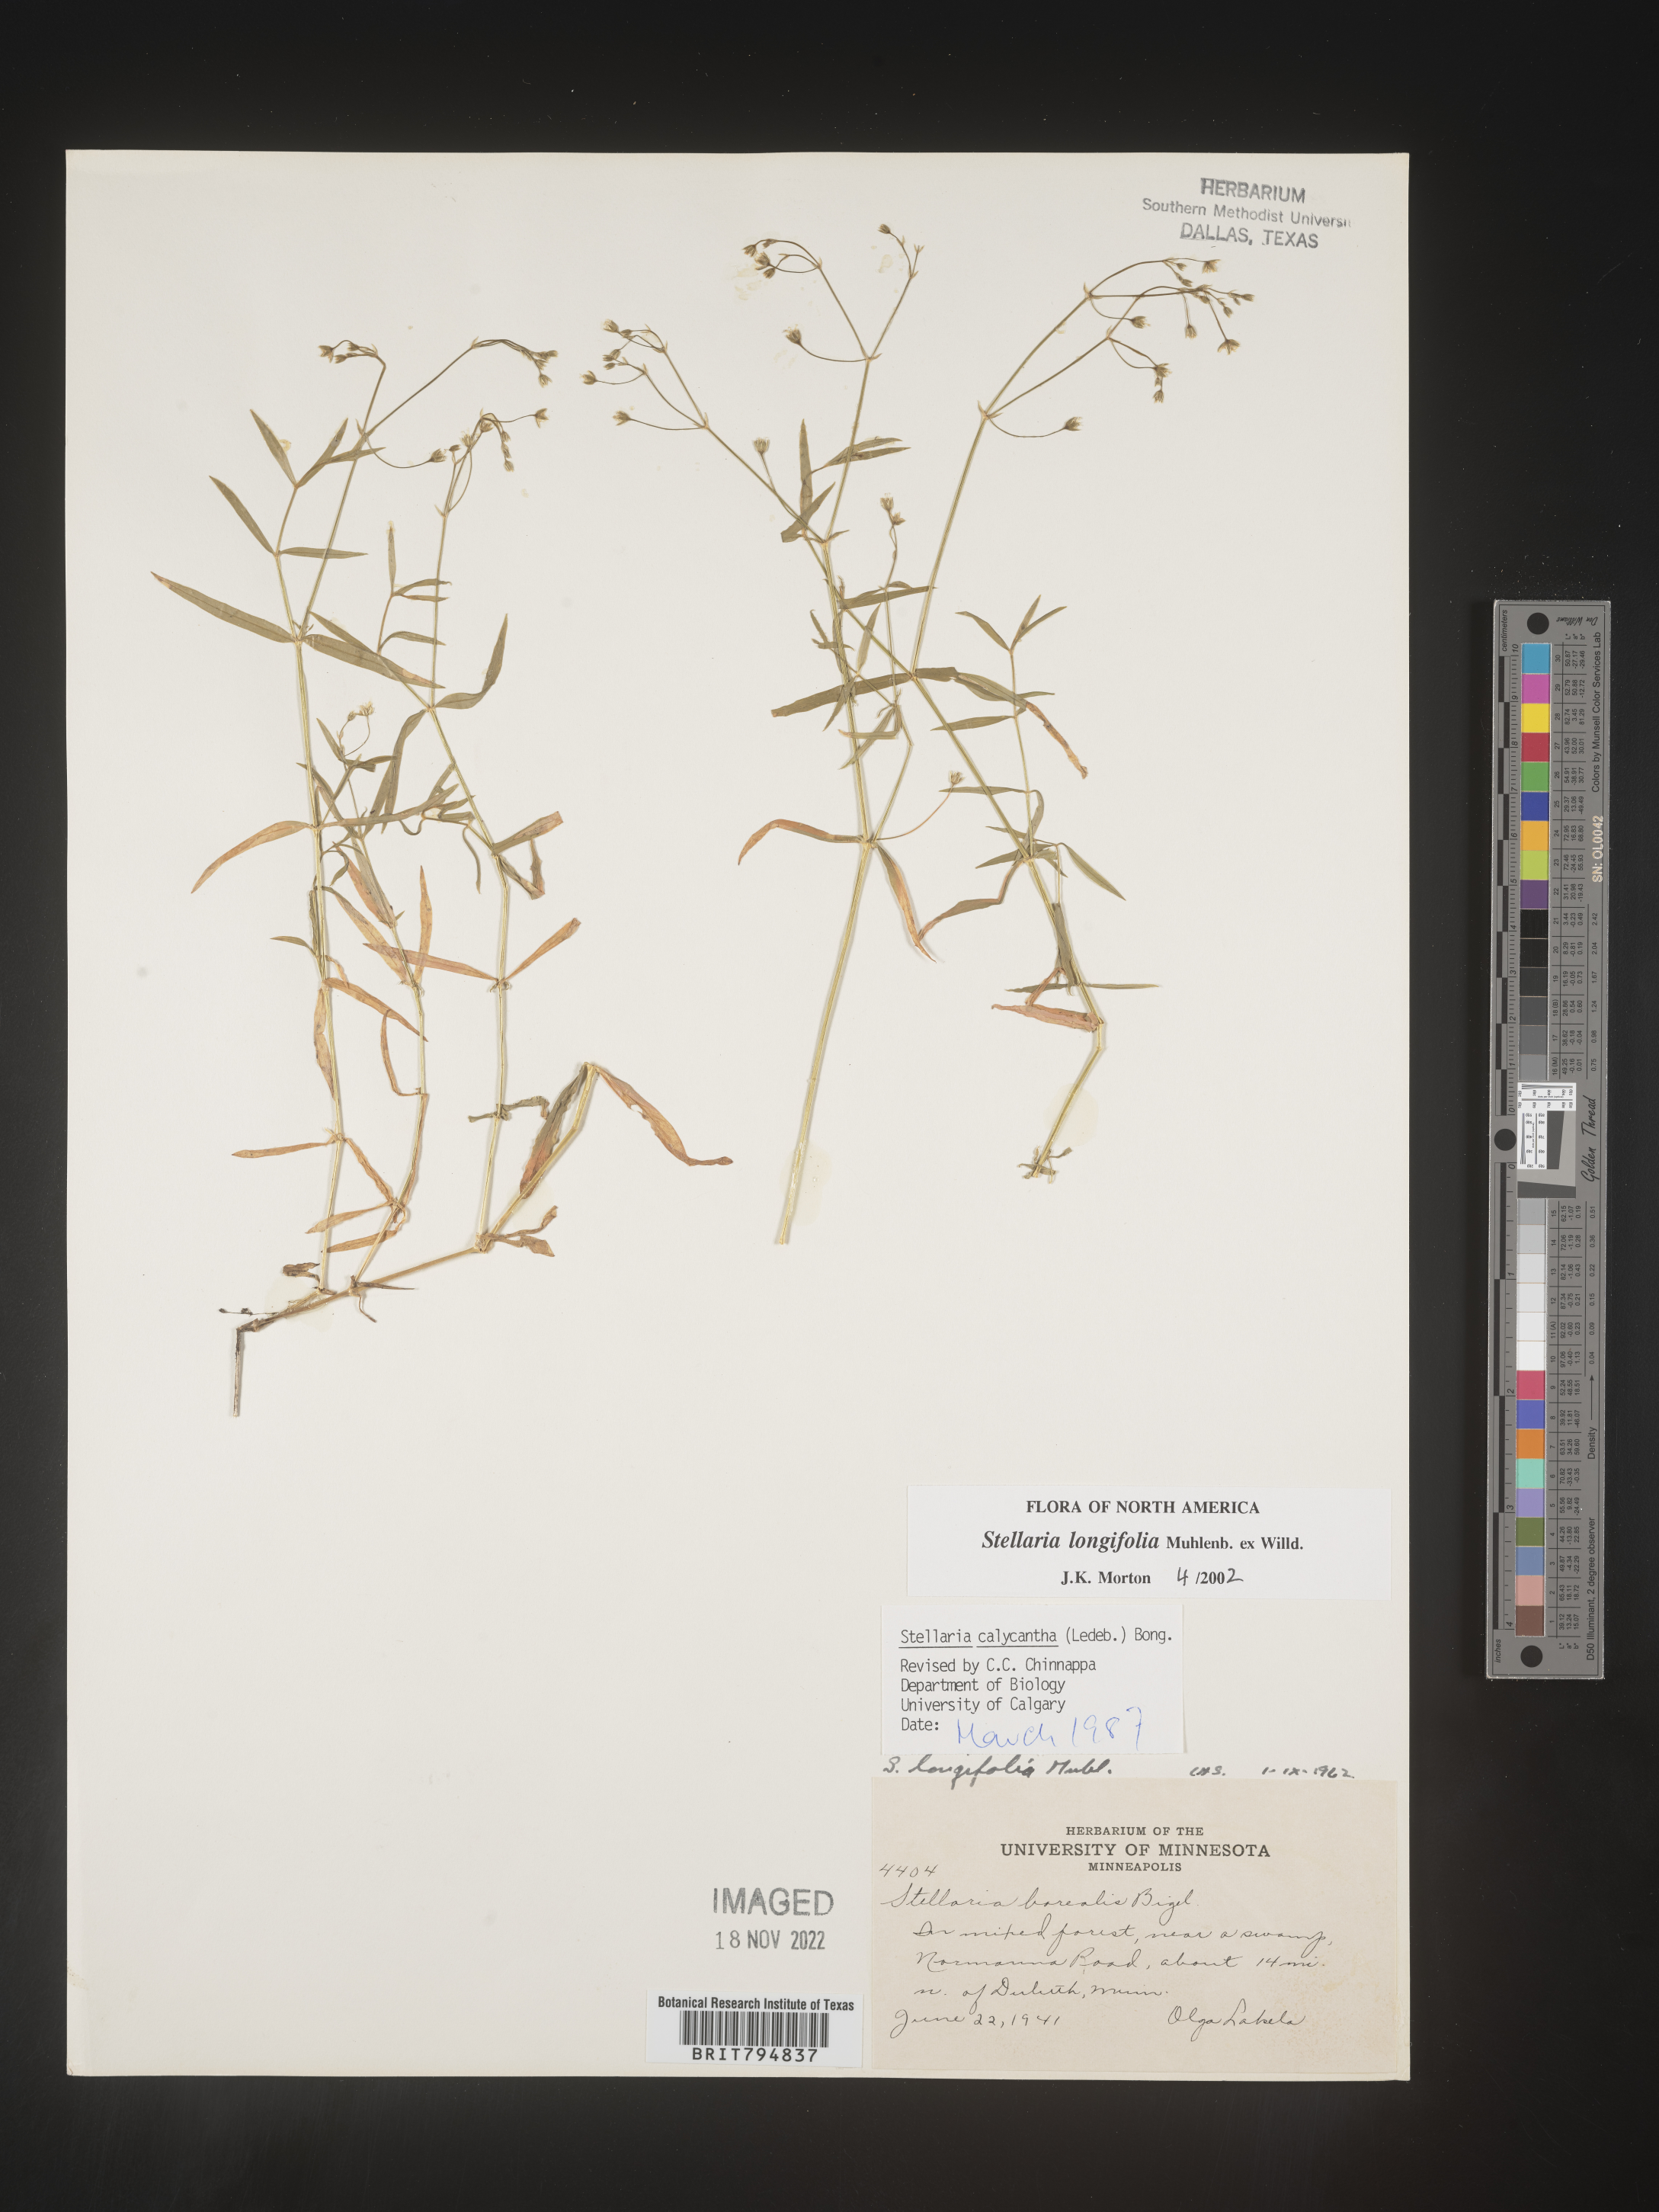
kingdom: Plantae
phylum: Tracheophyta
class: Magnoliopsida
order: Caryophyllales
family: Caryophyllaceae
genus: Stellaria
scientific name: Stellaria longifolia
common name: Long-leaved chickweed
